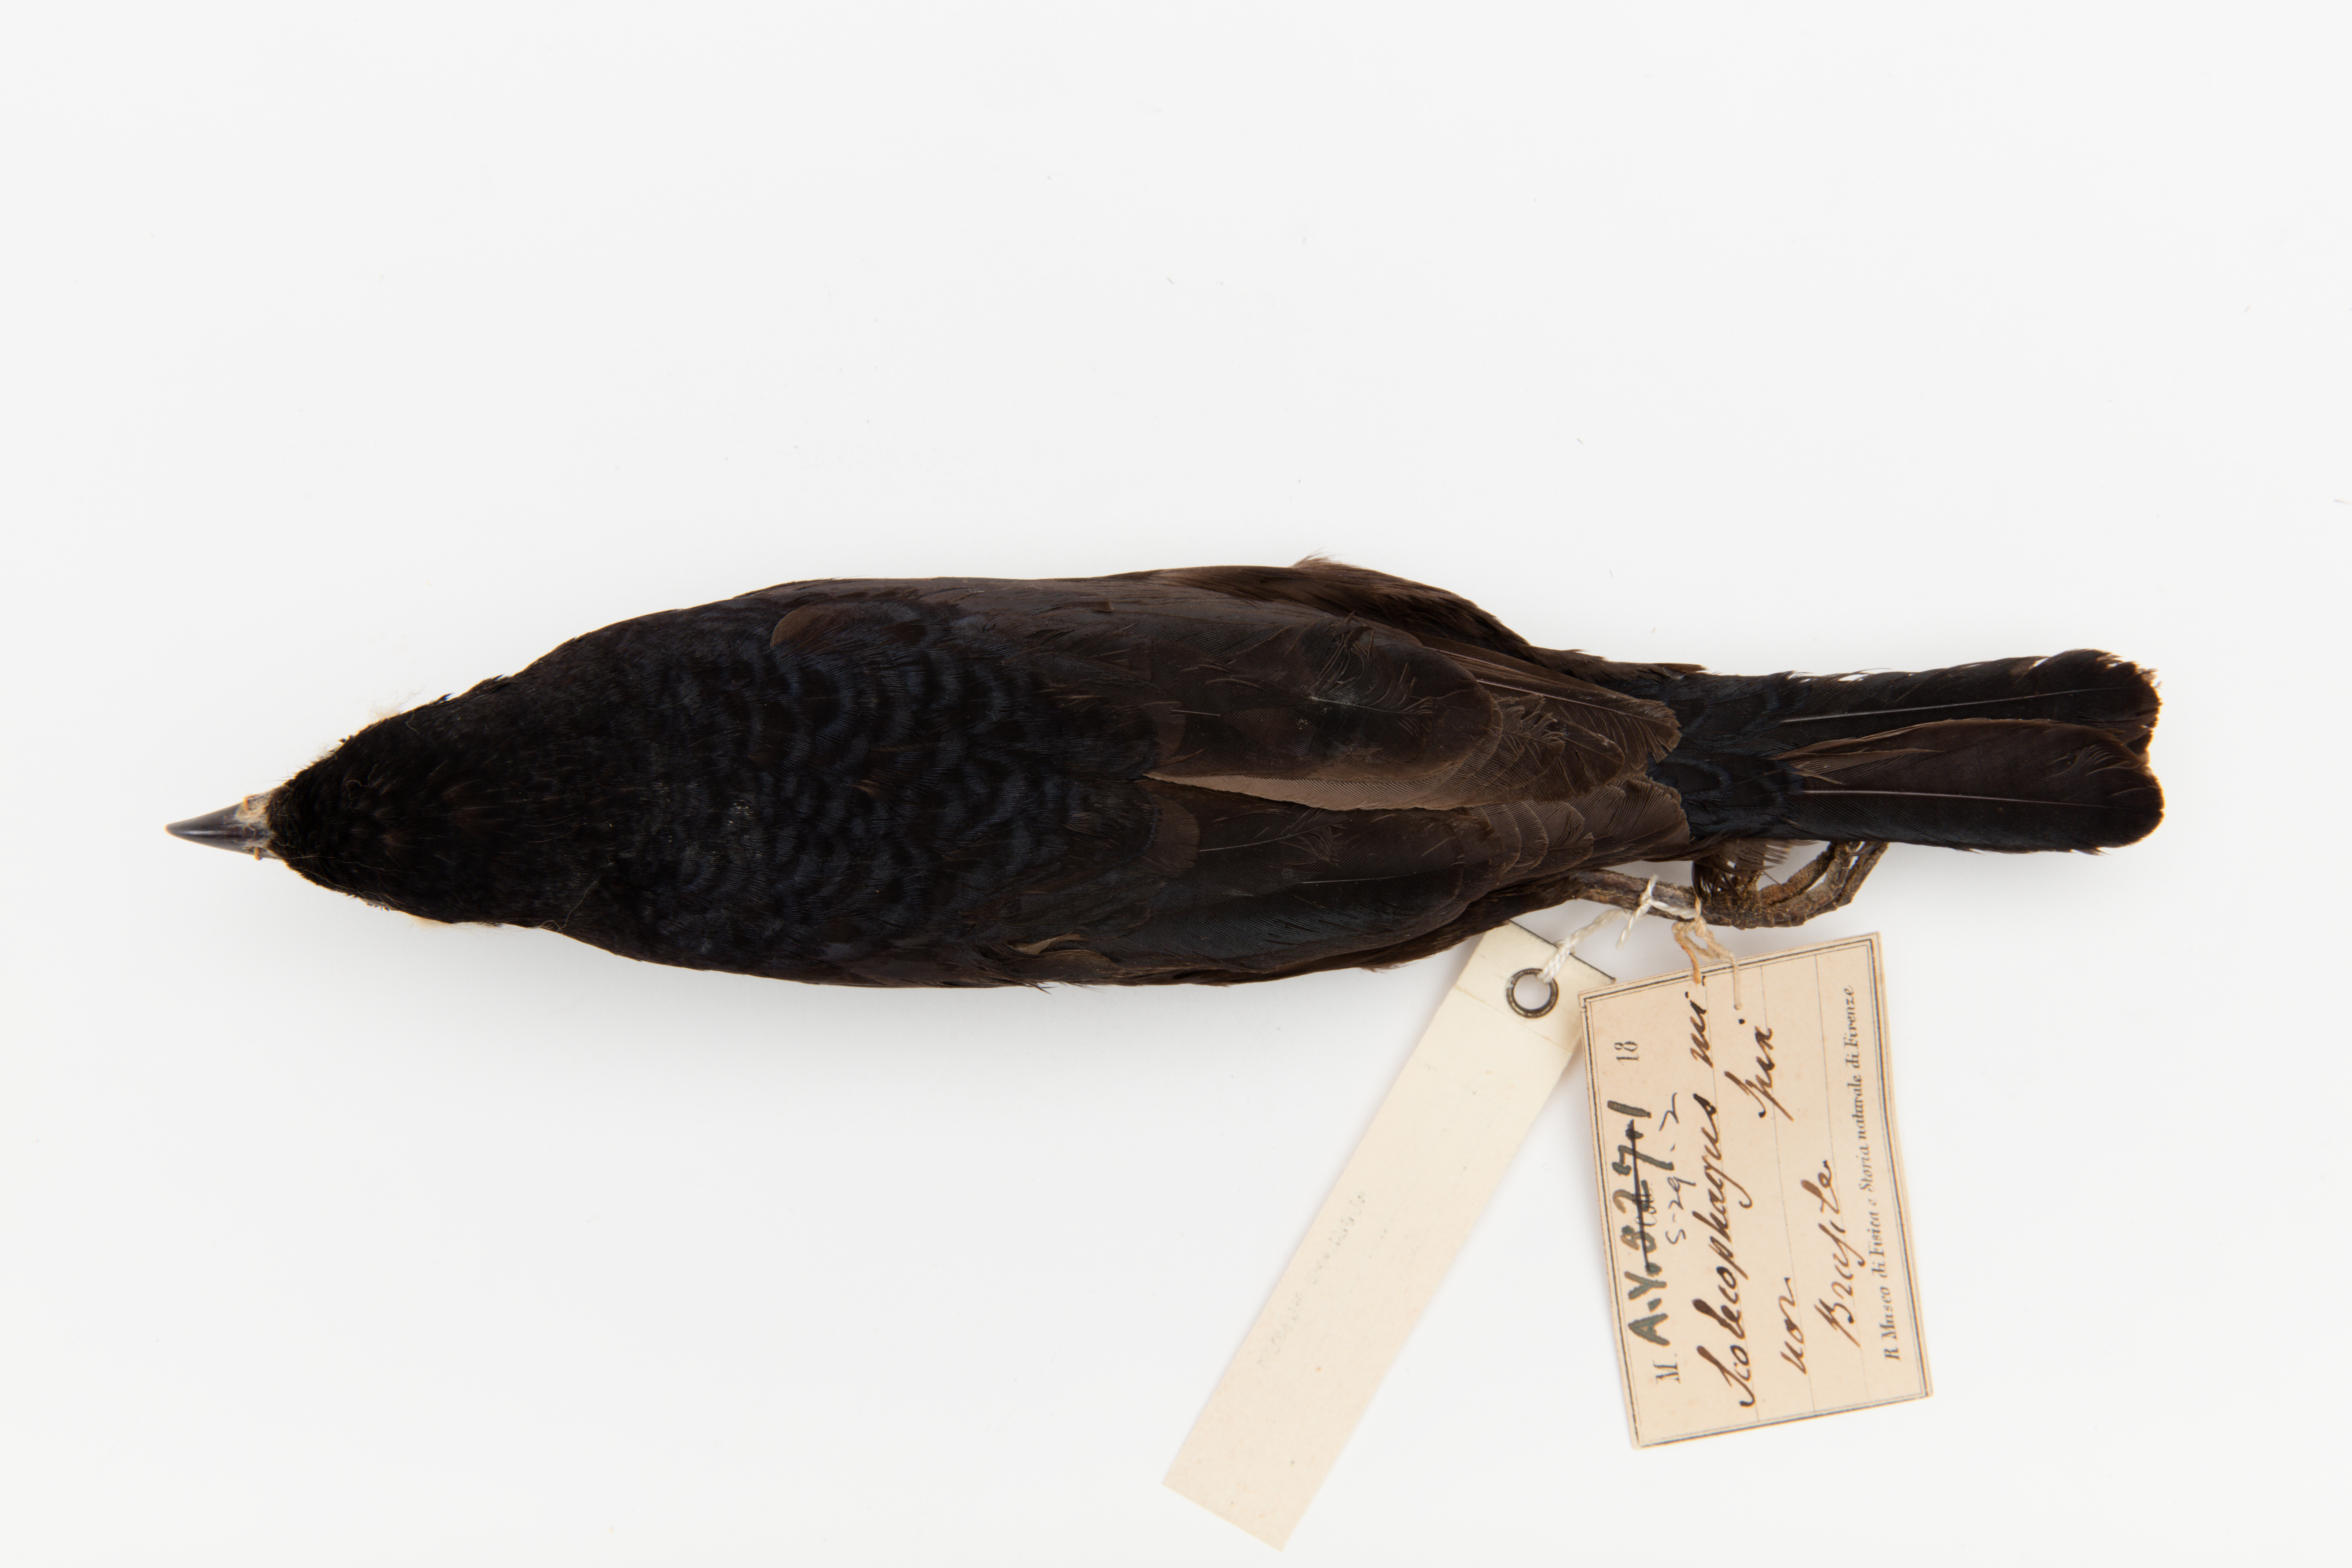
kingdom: Animalia
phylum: Chordata
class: Aves
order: Passeriformes
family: Icteridae
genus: Molothrus
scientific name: Molothrus bonariensis
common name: Shiny cowbird
